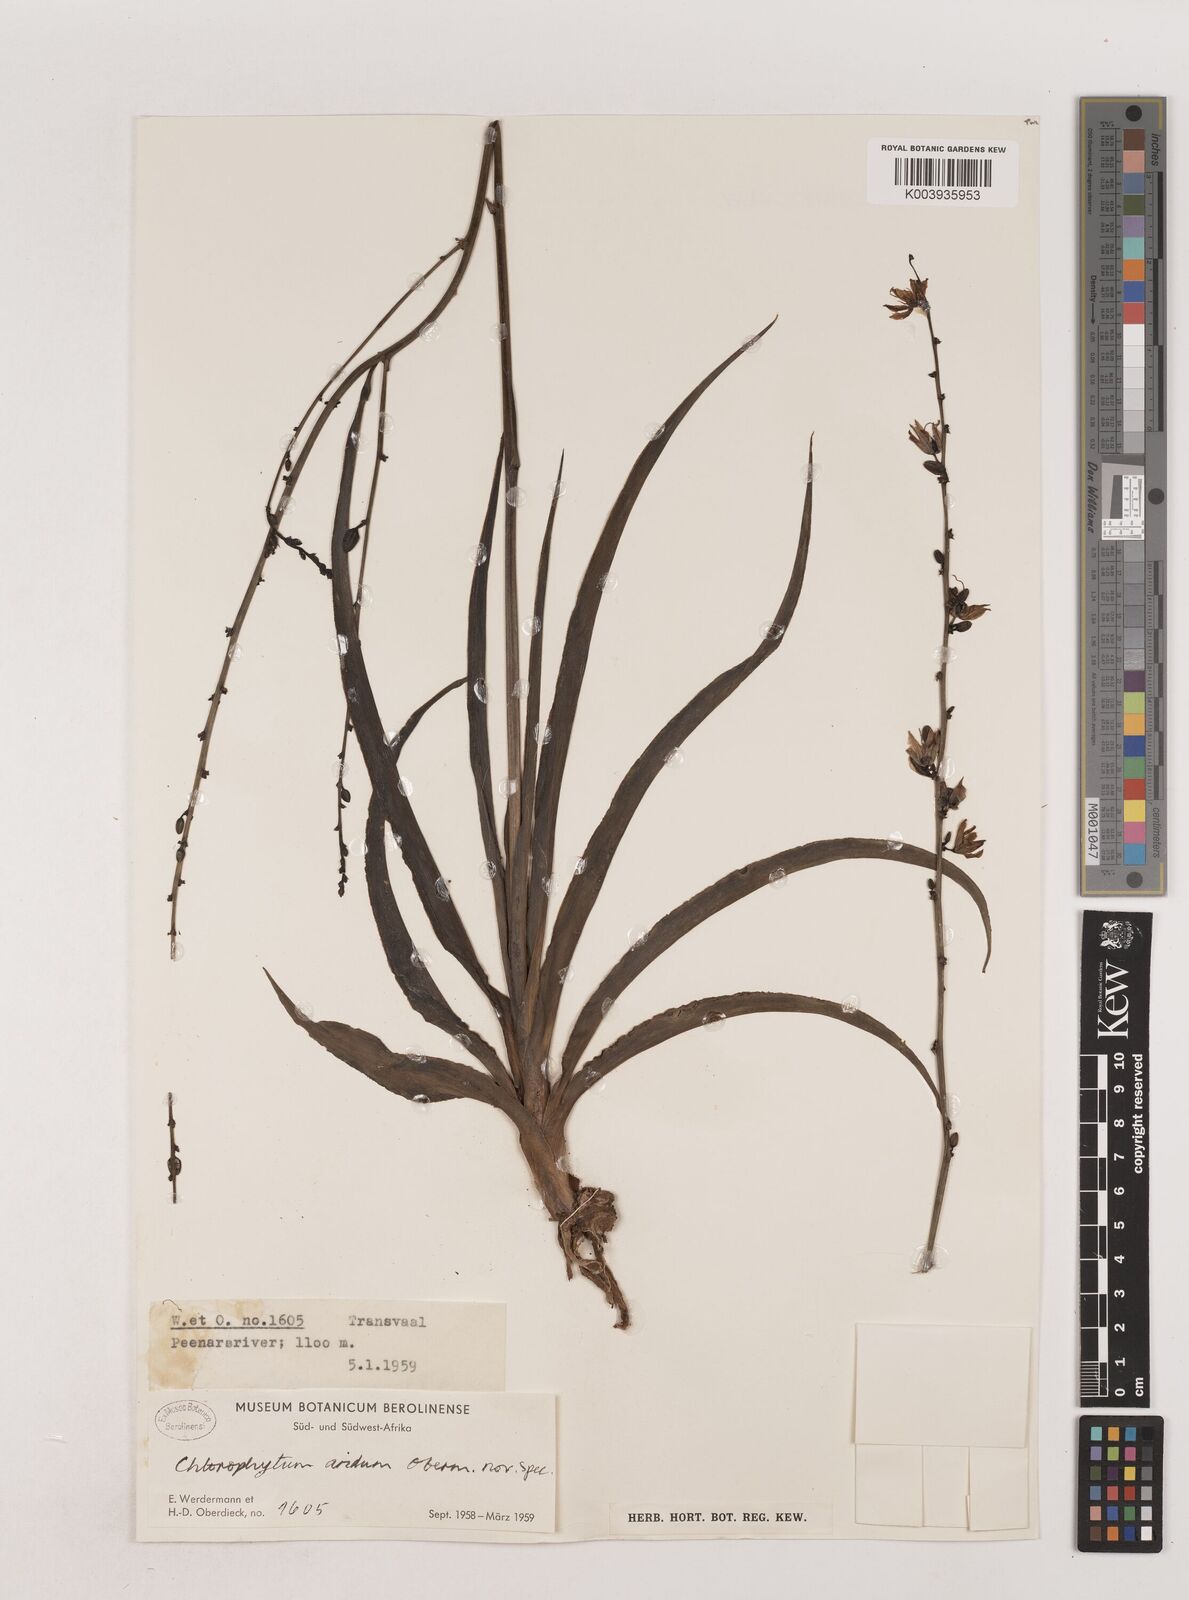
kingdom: Plantae
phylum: Tracheophyta
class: Liliopsida
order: Asparagales
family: Asparagaceae
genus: Chlorophytum
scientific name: Chlorophytum aridum
